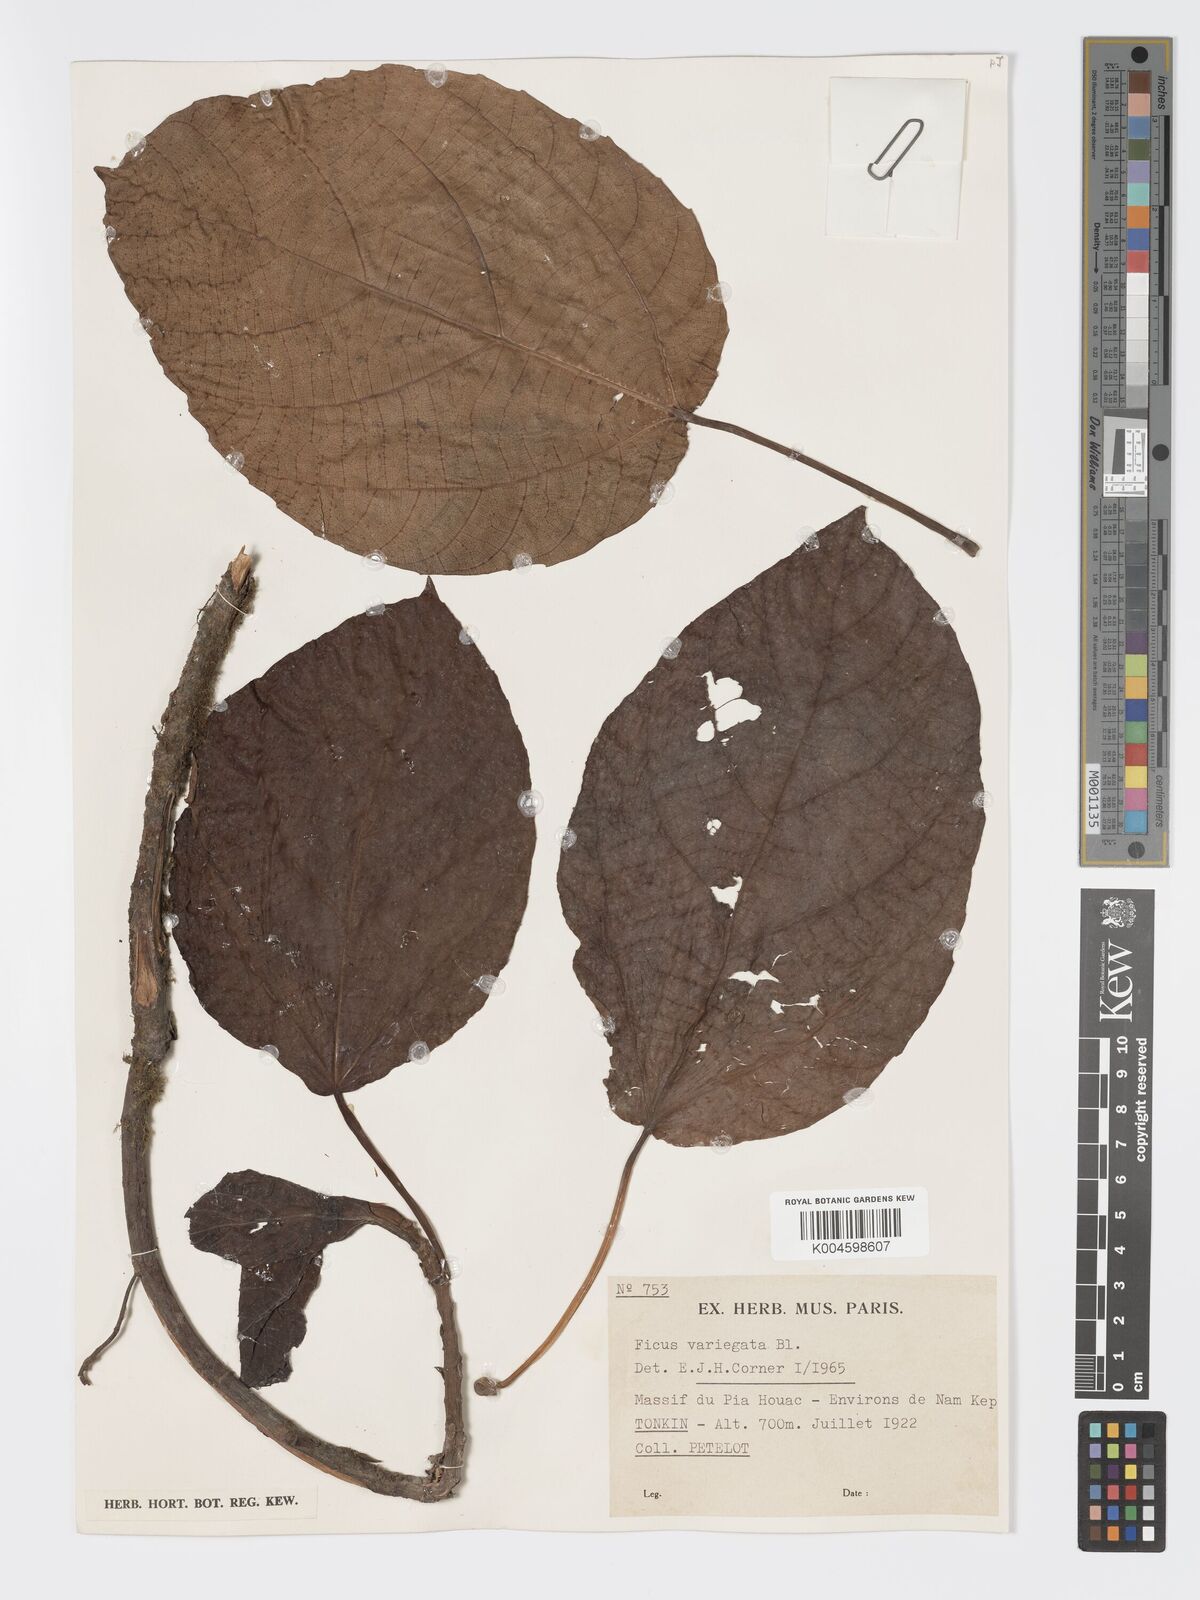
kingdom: Plantae
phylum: Tracheophyta
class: Magnoliopsida
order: Rosales
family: Moraceae
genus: Ficus
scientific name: Ficus variegata
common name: Variegated fig
